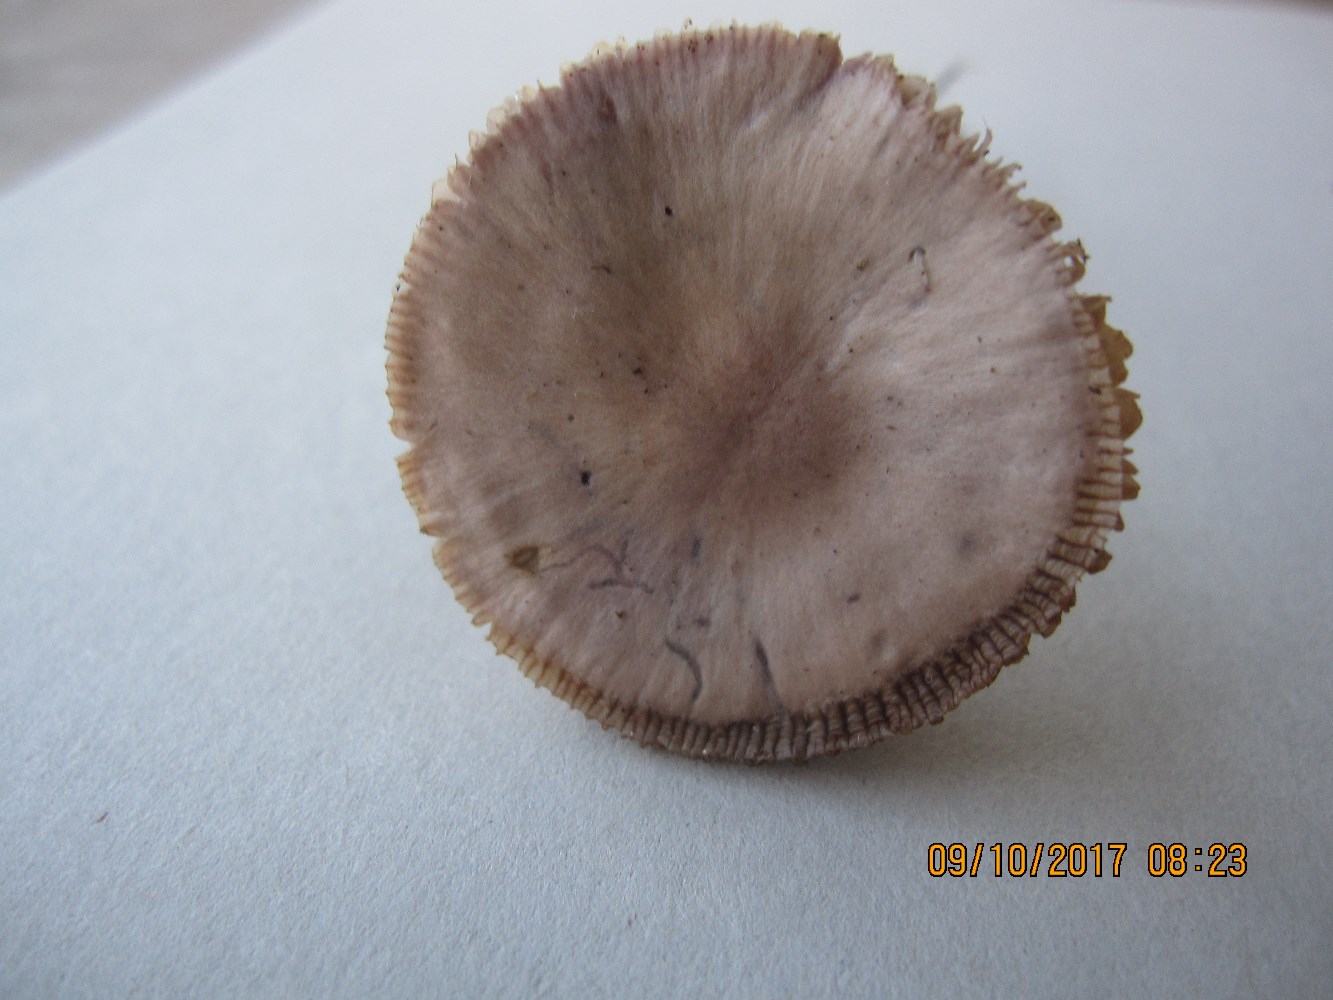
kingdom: Fungi
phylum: Basidiomycota
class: Agaricomycetes
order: Agaricales
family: Mycenaceae
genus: Mycena
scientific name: Mycena luteovariegata
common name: lillagul huesvamp
